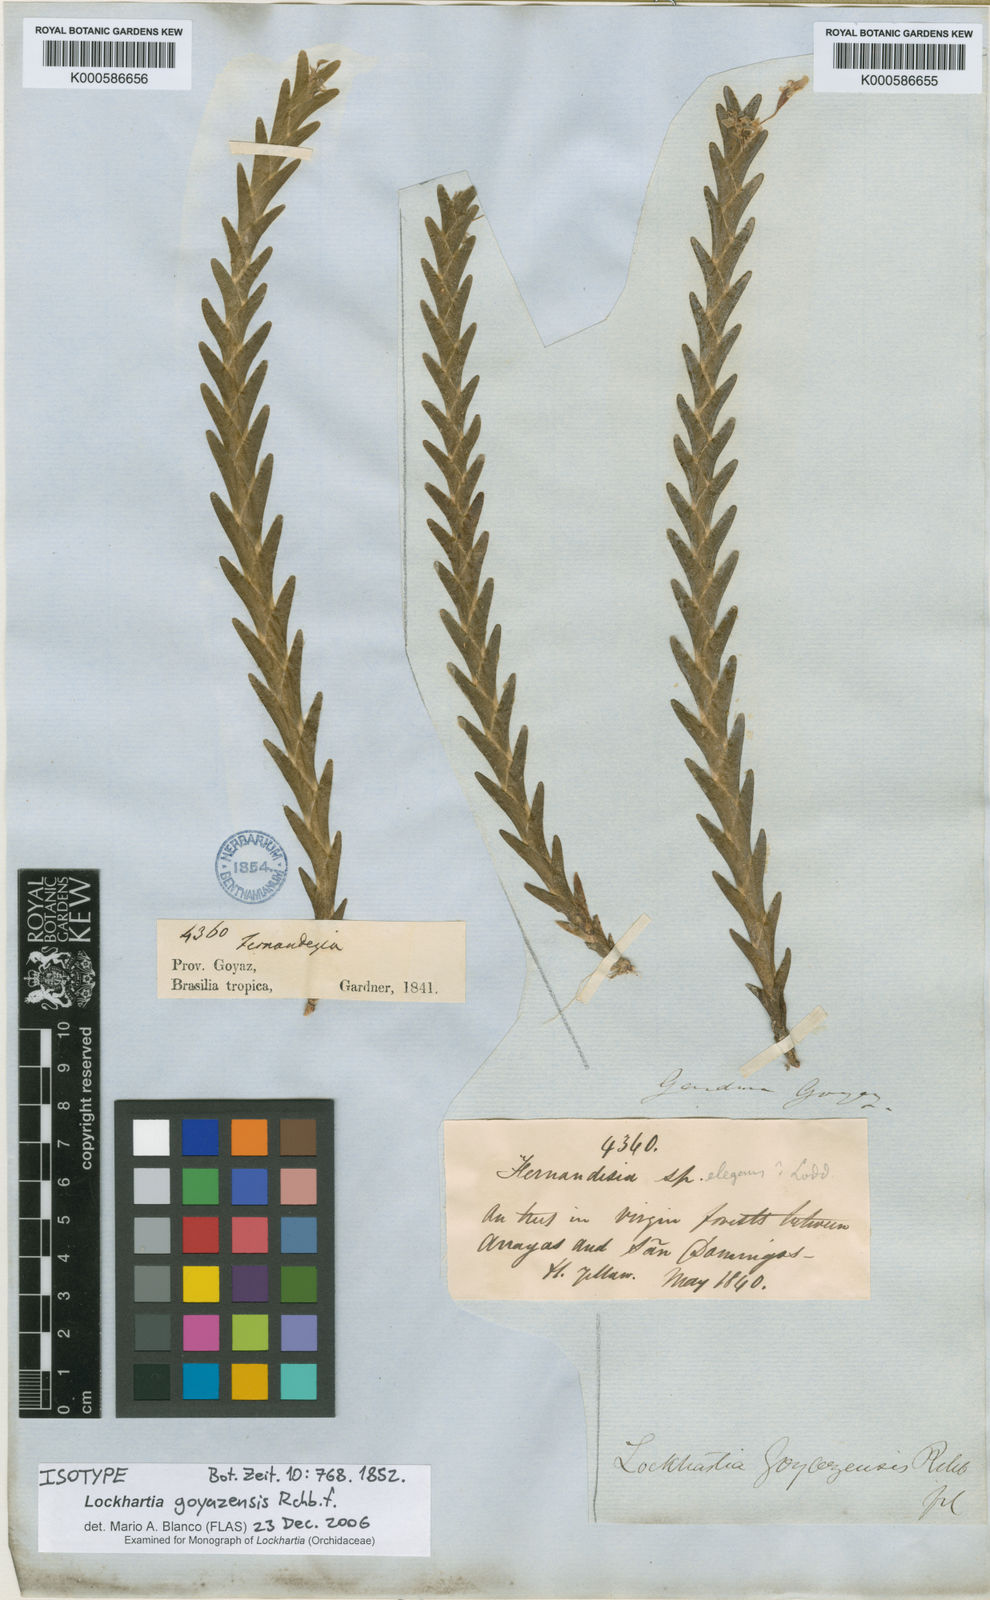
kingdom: Plantae
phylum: Tracheophyta
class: Liliopsida
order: Asparagales
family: Orchidaceae
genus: Lockhartia
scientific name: Lockhartia goyazensis
